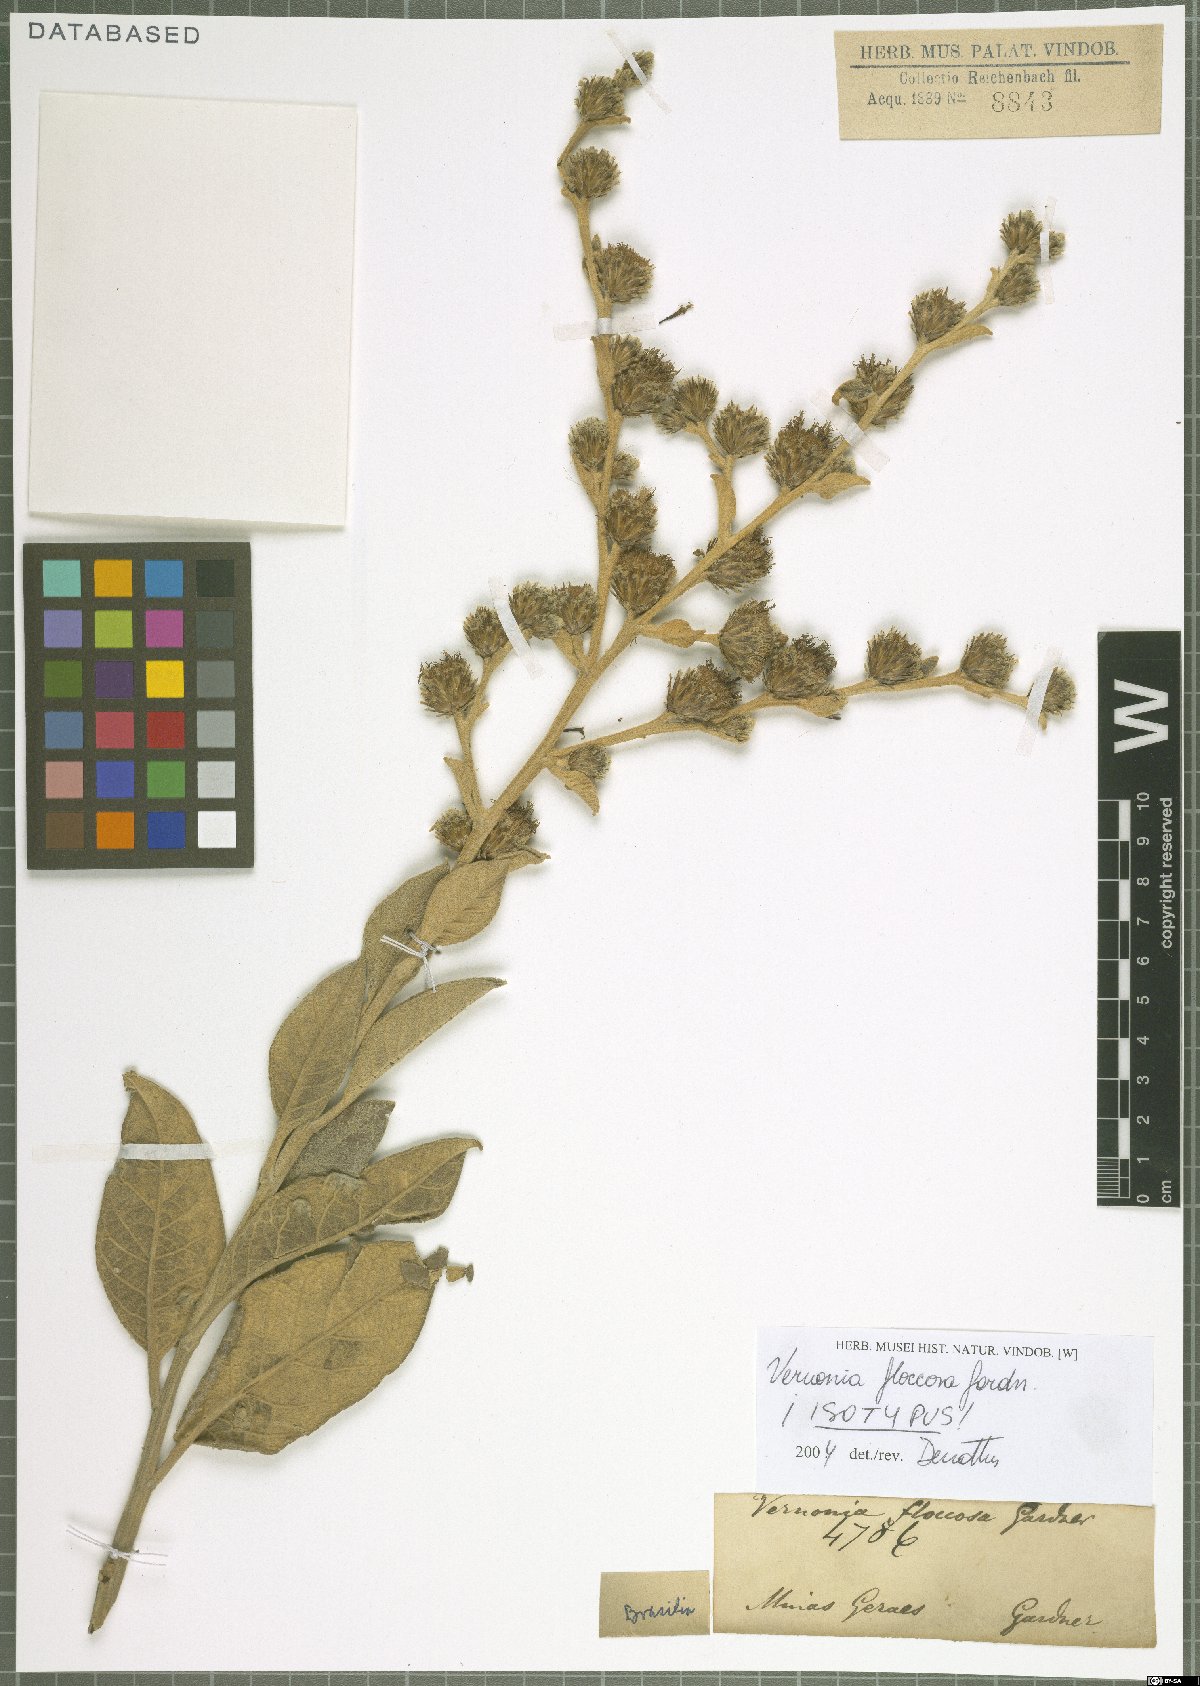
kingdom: Plantae
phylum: Tracheophyta
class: Magnoliopsida
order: Asterales
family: Asteraceae
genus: Lessingianthus
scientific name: Lessingianthus floccosus
